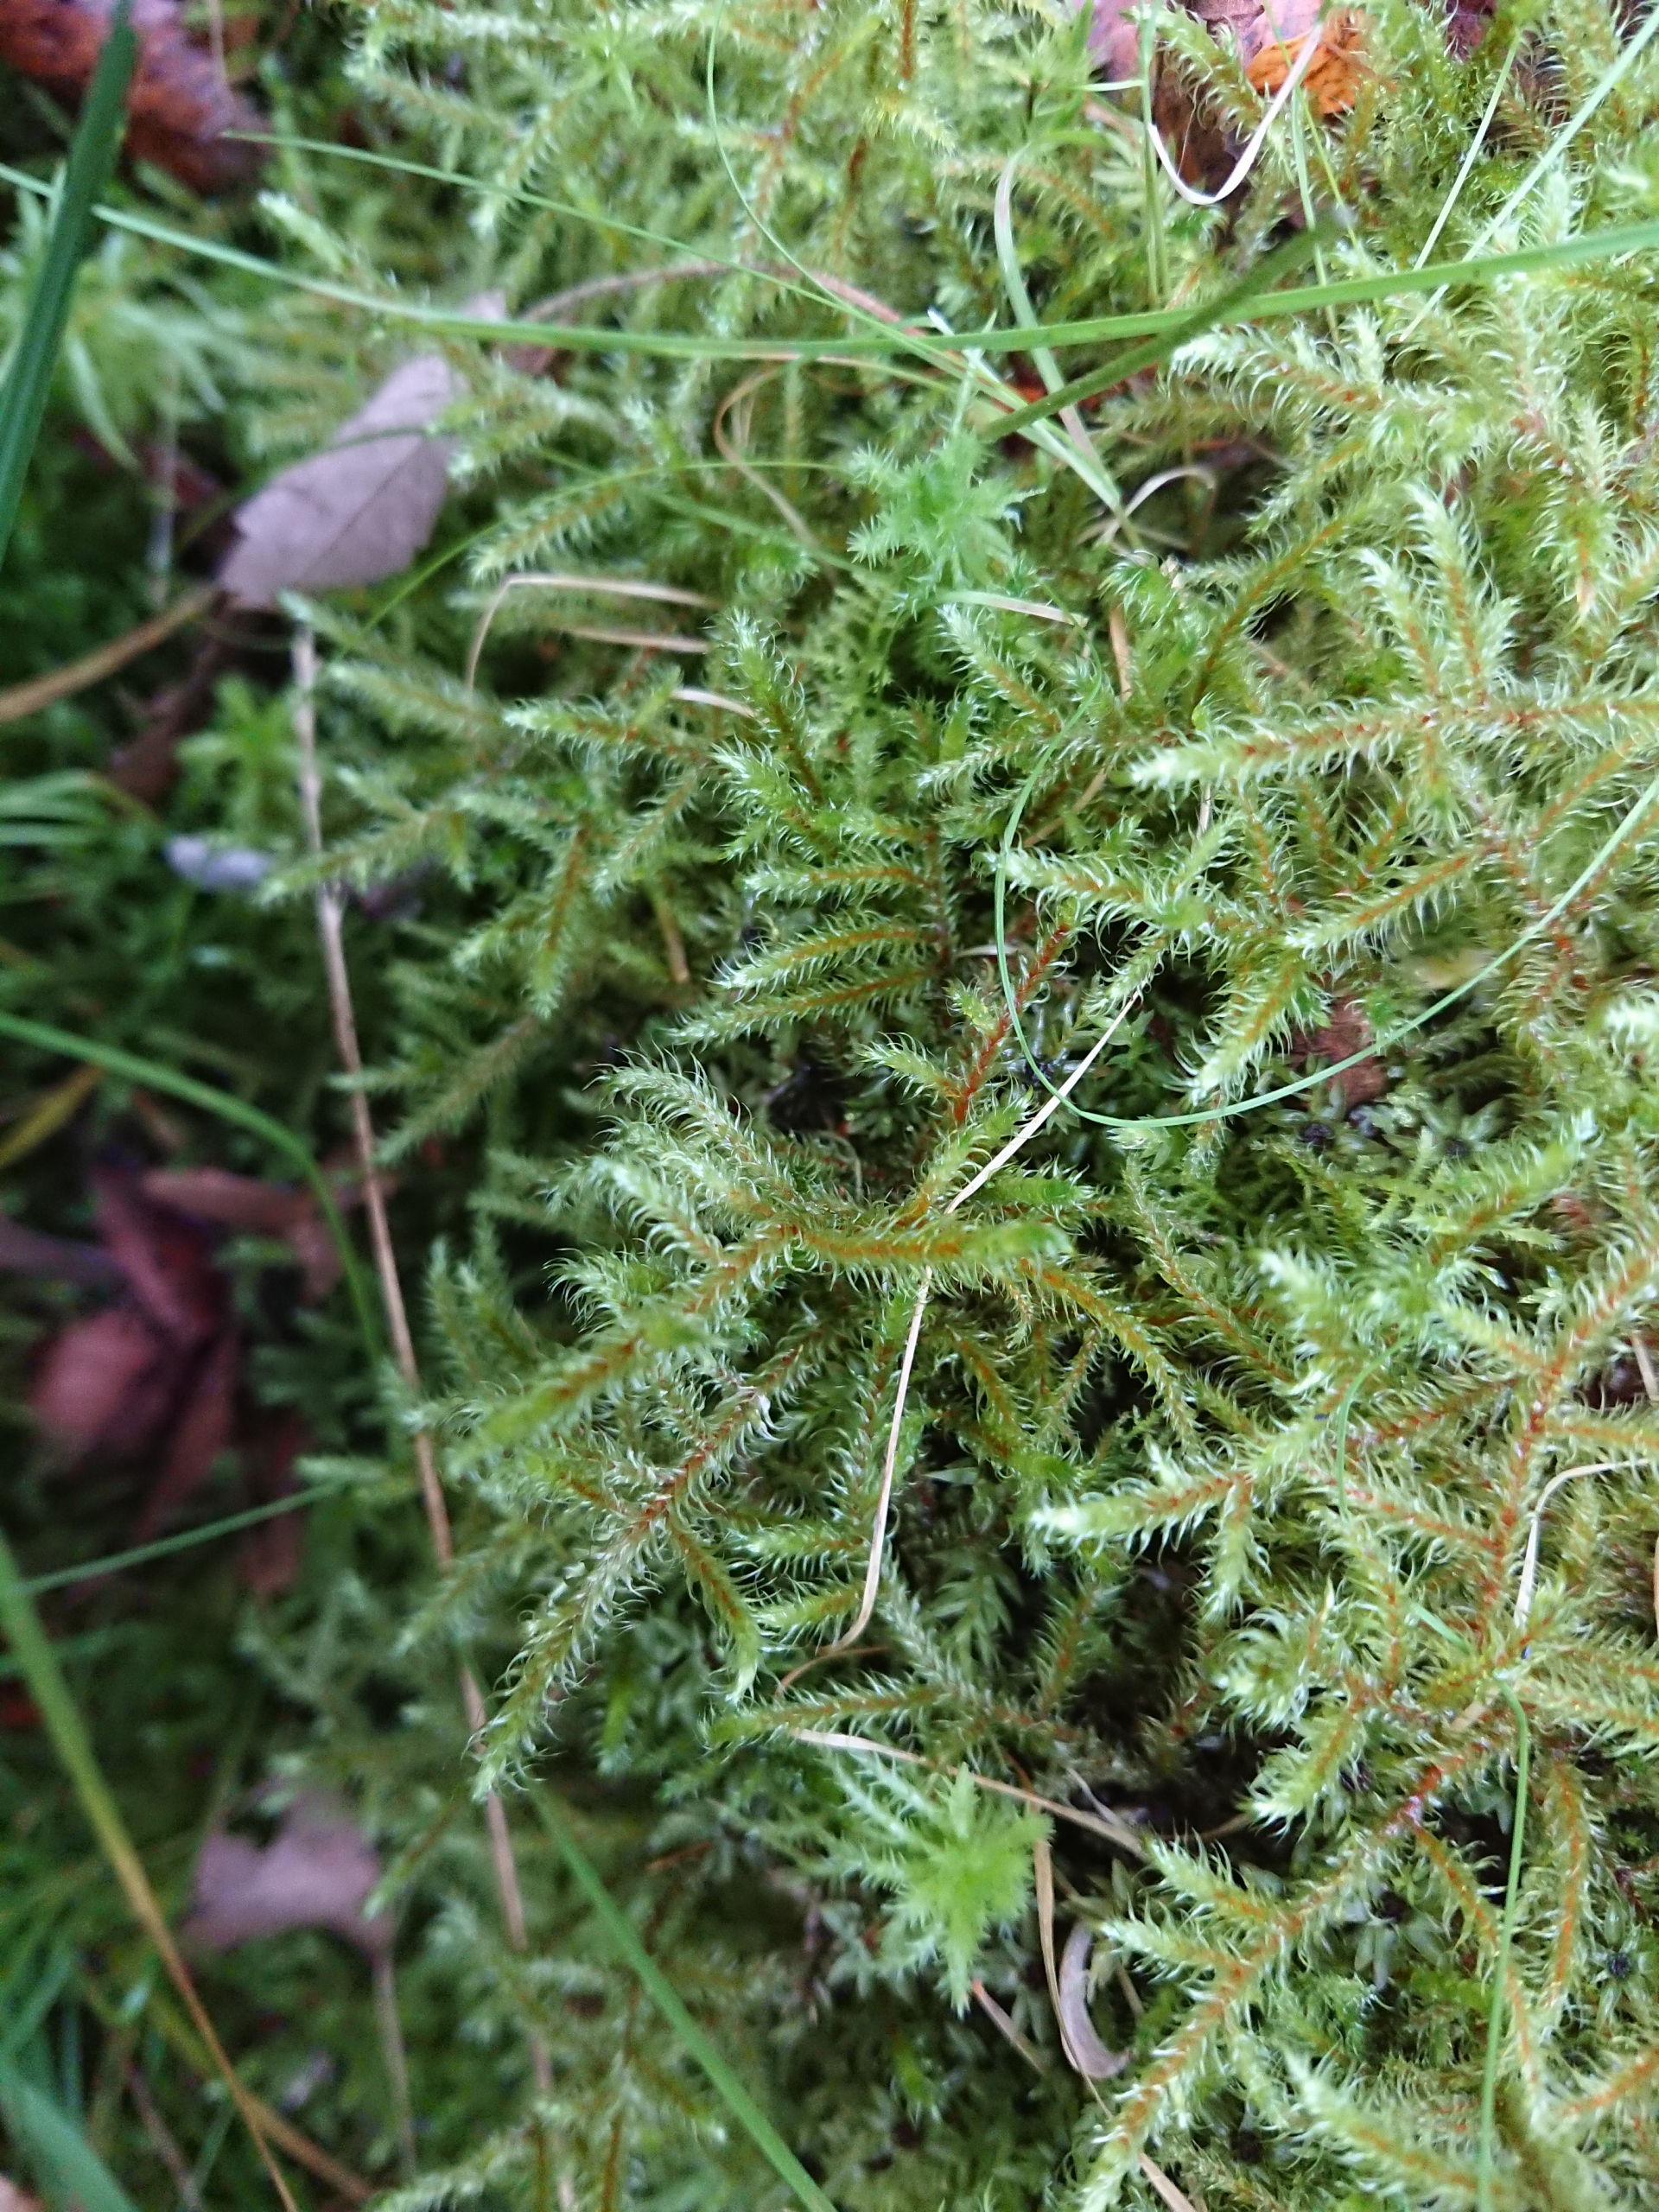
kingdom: Plantae
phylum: Bryophyta
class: Bryopsida
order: Hypnales
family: Hylocomiaceae
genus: Rhytidiadelphus
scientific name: Rhytidiadelphus loreus
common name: Ulvefod-kransemos
